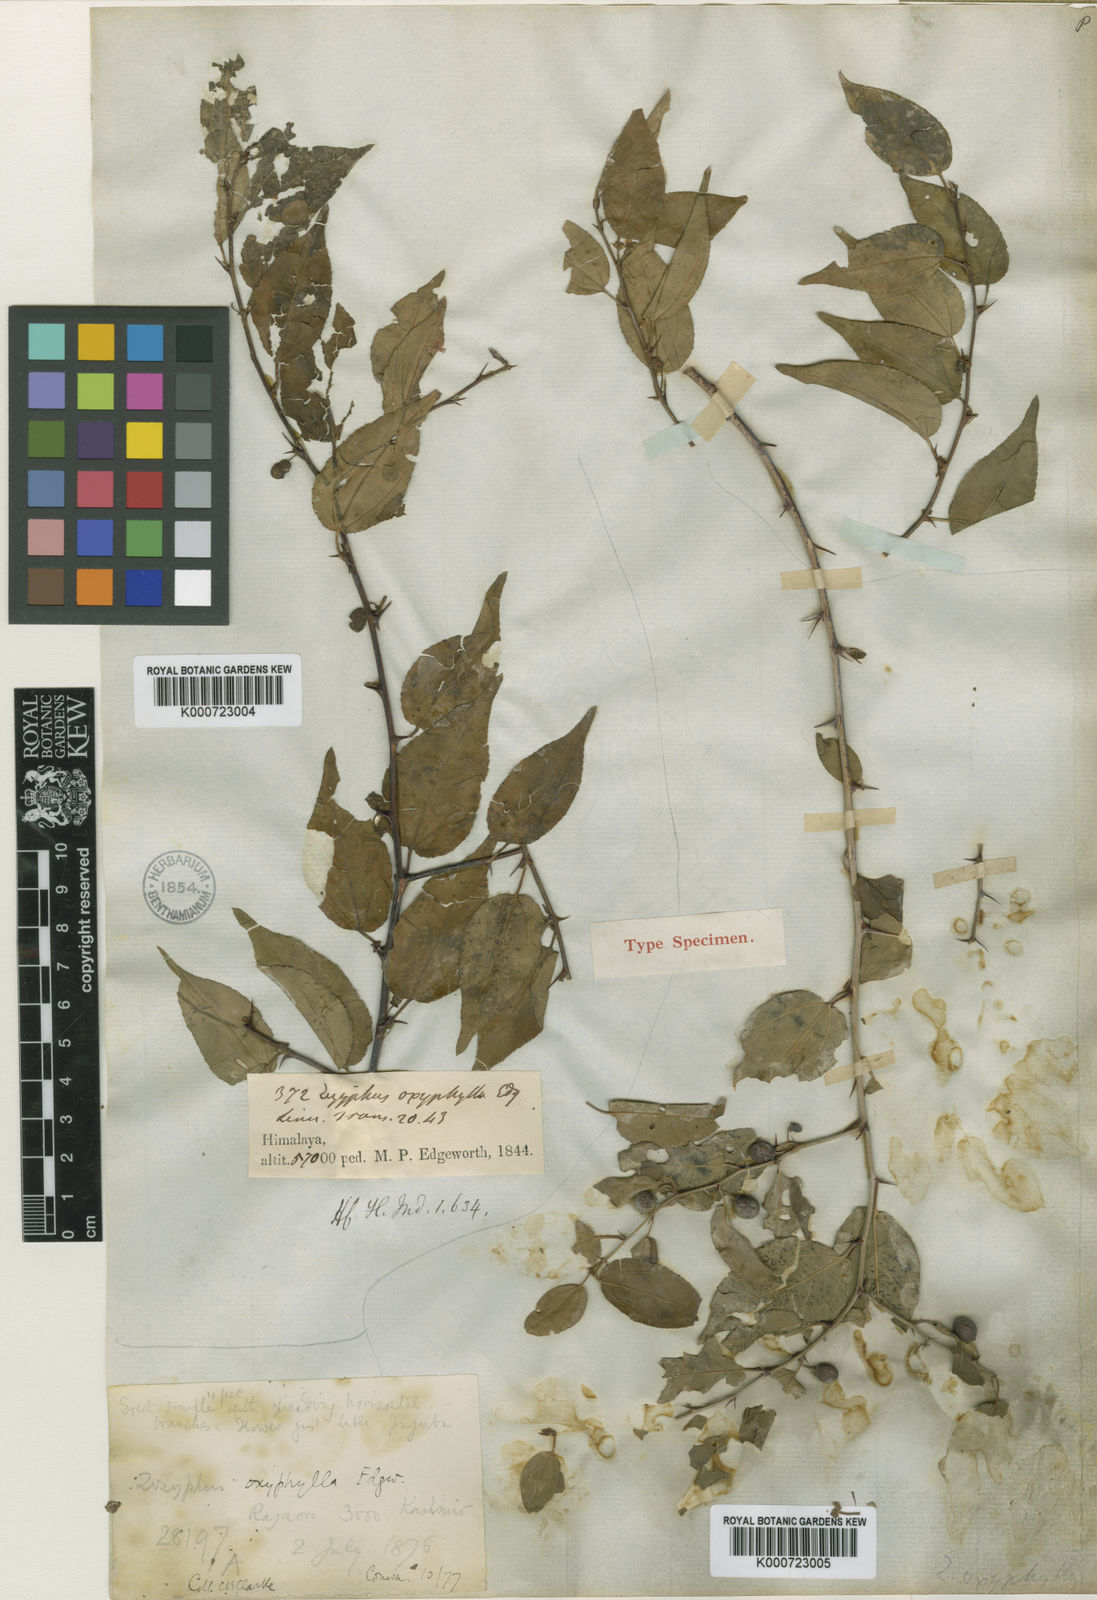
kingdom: Plantae
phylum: Tracheophyta
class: Magnoliopsida
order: Rosales
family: Rhamnaceae
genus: Ziziphus
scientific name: Ziziphus oxyphylla
